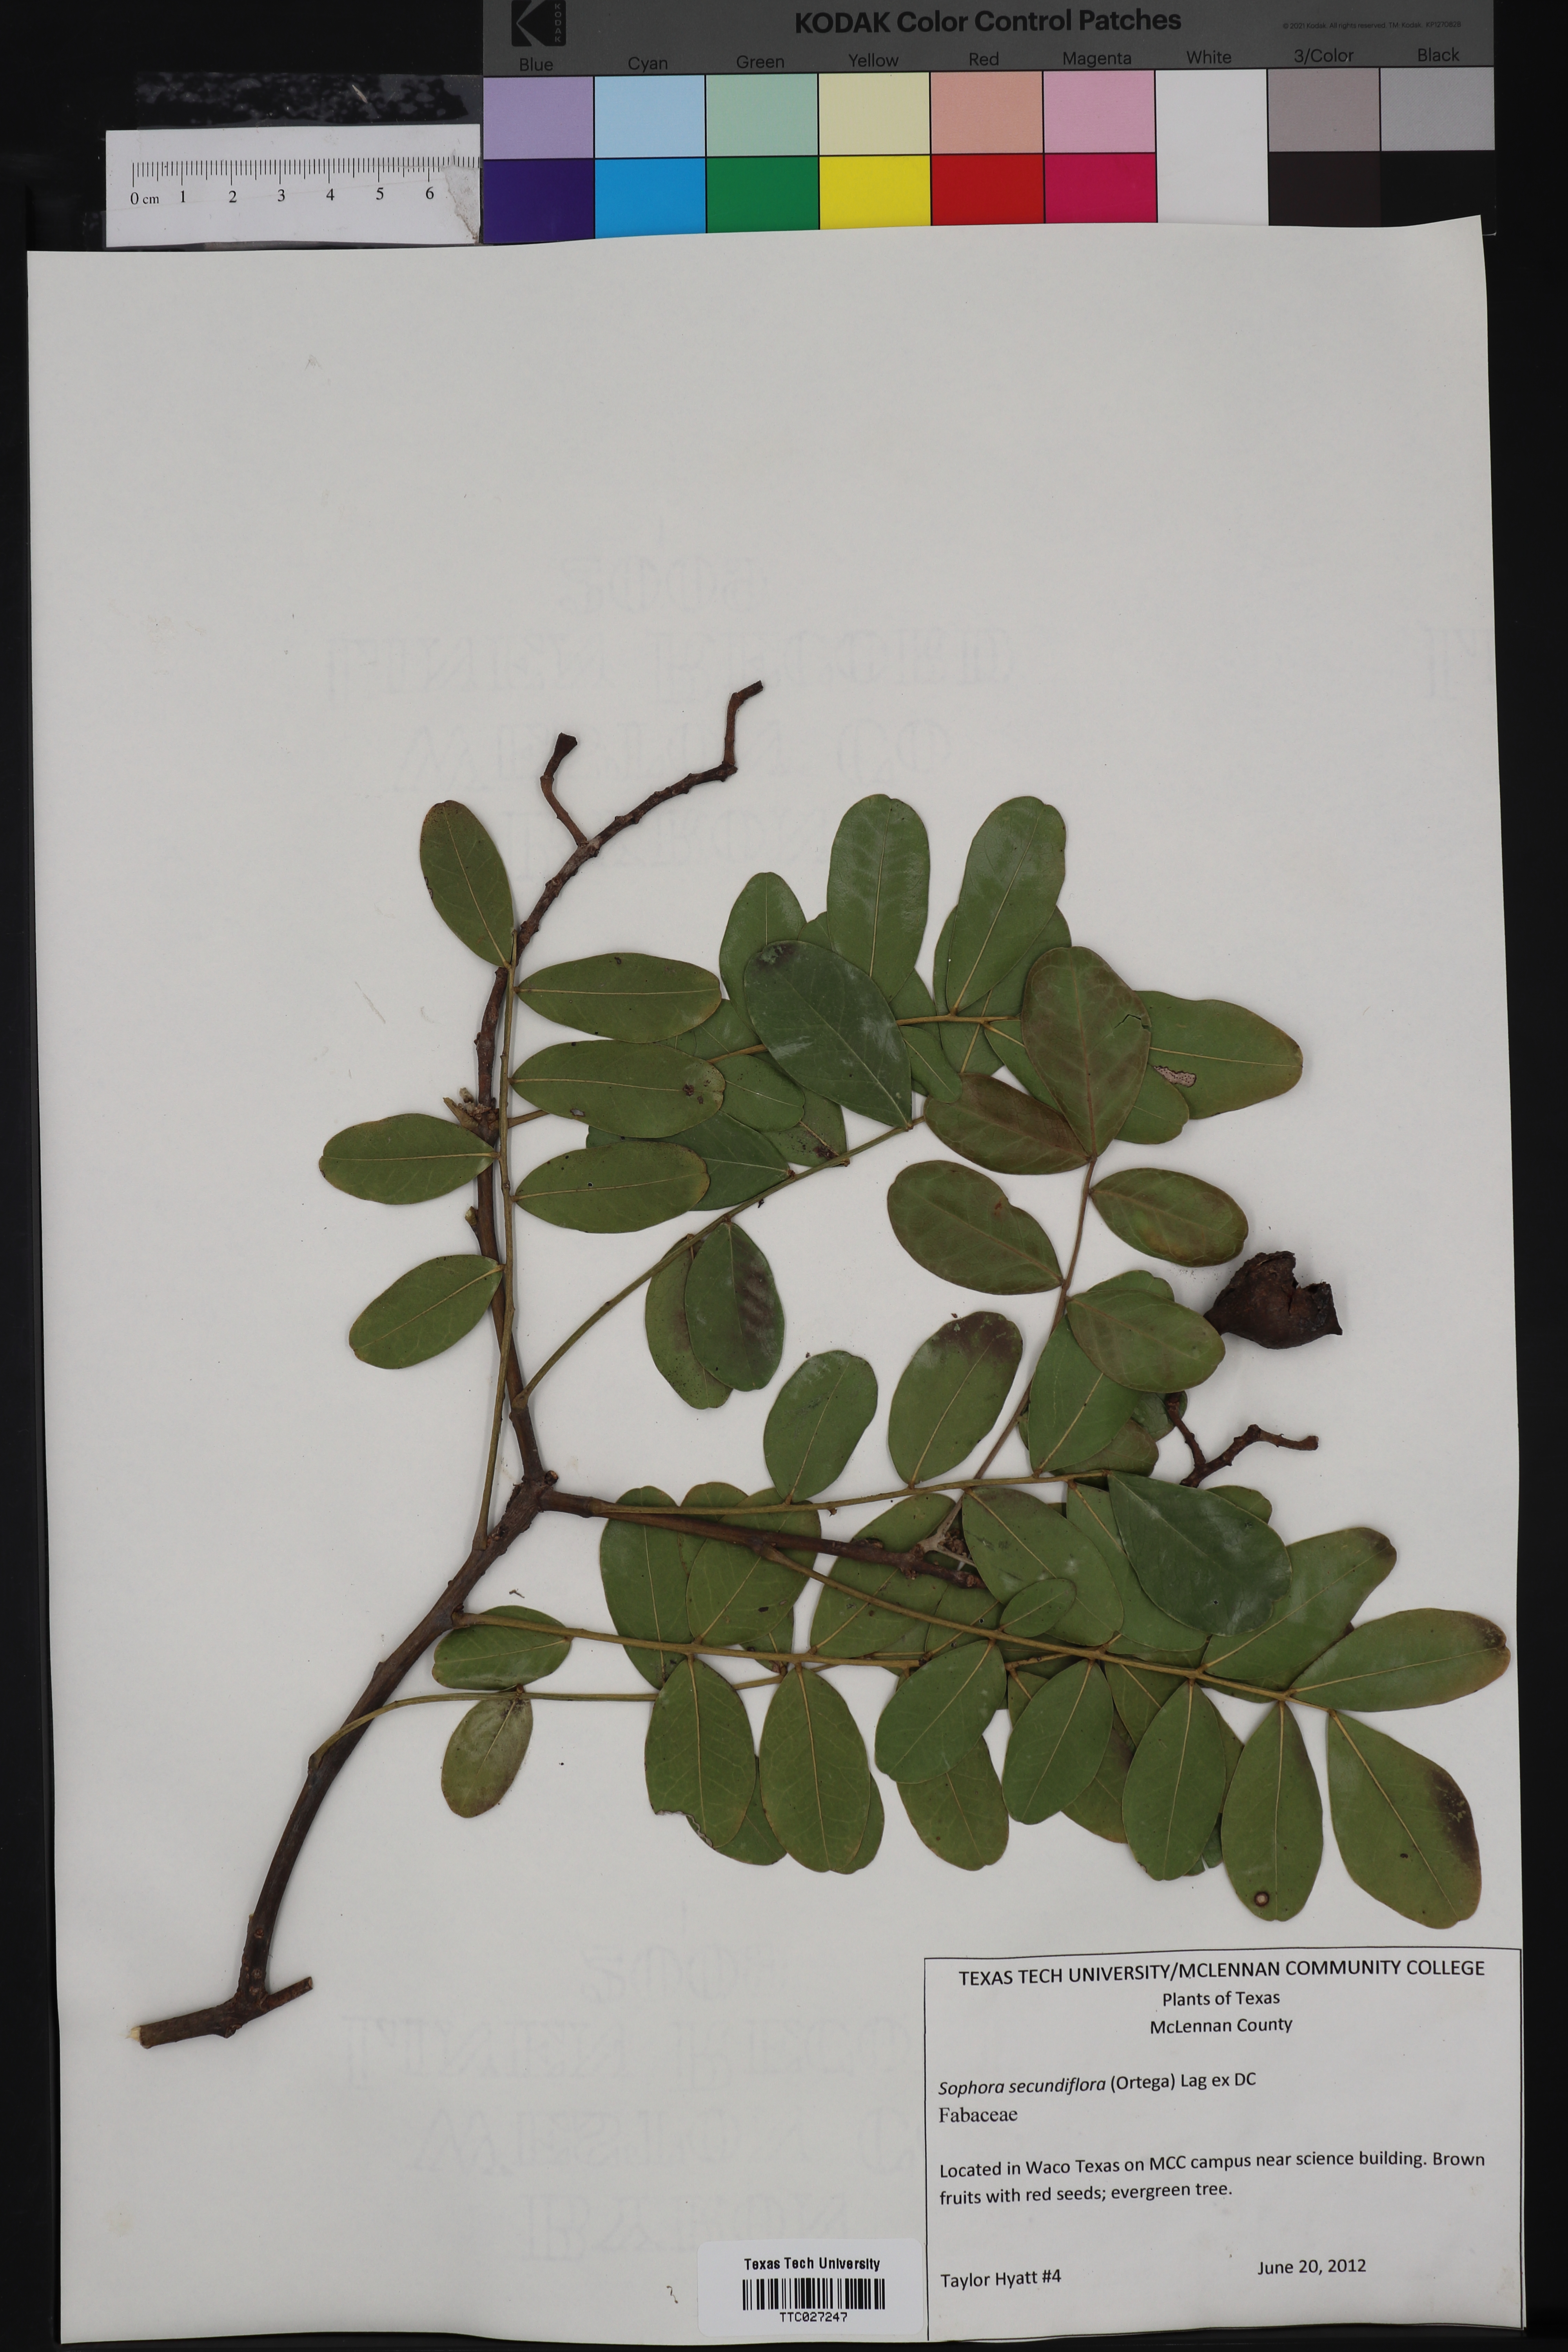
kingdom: Plantae
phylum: Tracheophyta
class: Magnoliopsida
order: Fabales
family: Fabaceae
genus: Dermatophyllum
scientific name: Dermatophyllum secundiflorum
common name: Texas-mountain-laurel
